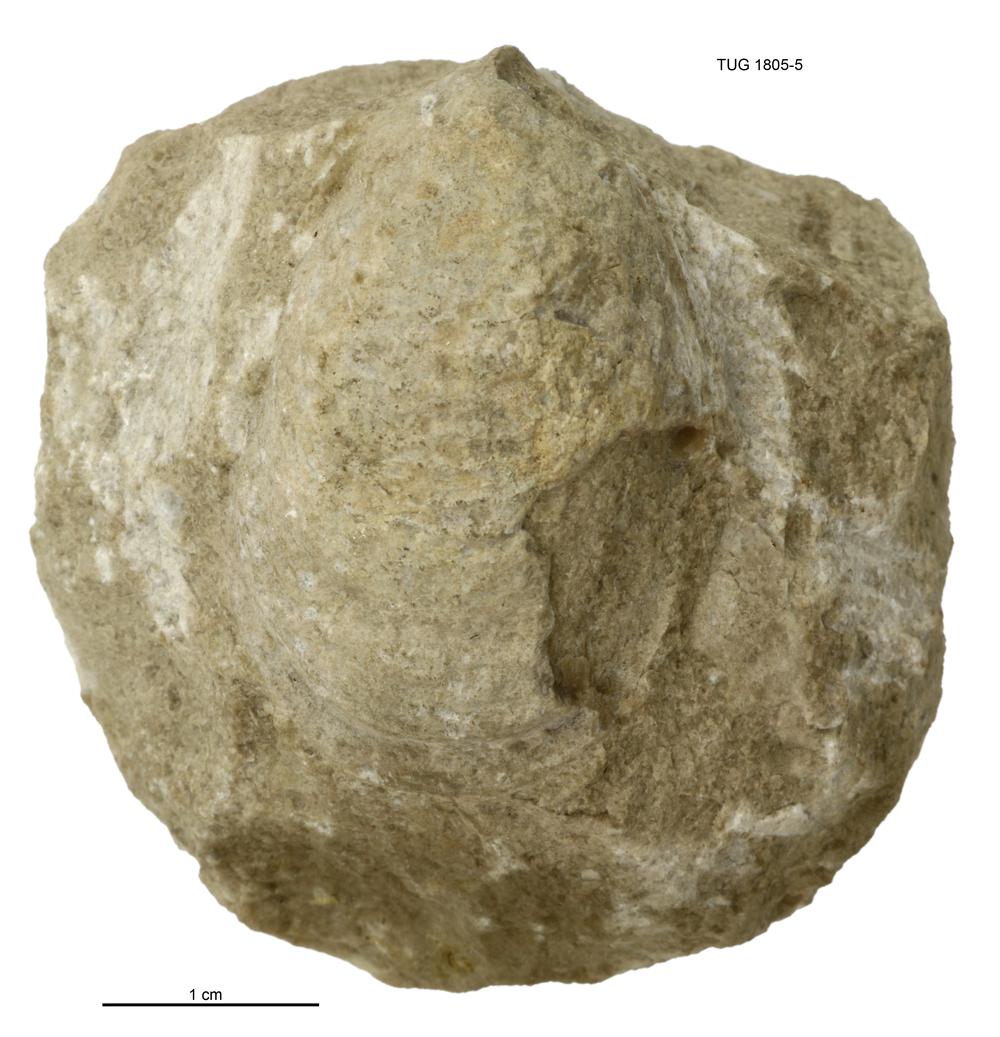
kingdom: Animalia
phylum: Mollusca
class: Monoplacophora
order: Tryblidiida
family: Tryblidiidae
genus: Pilina
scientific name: Pilina Triblidium esthonum
